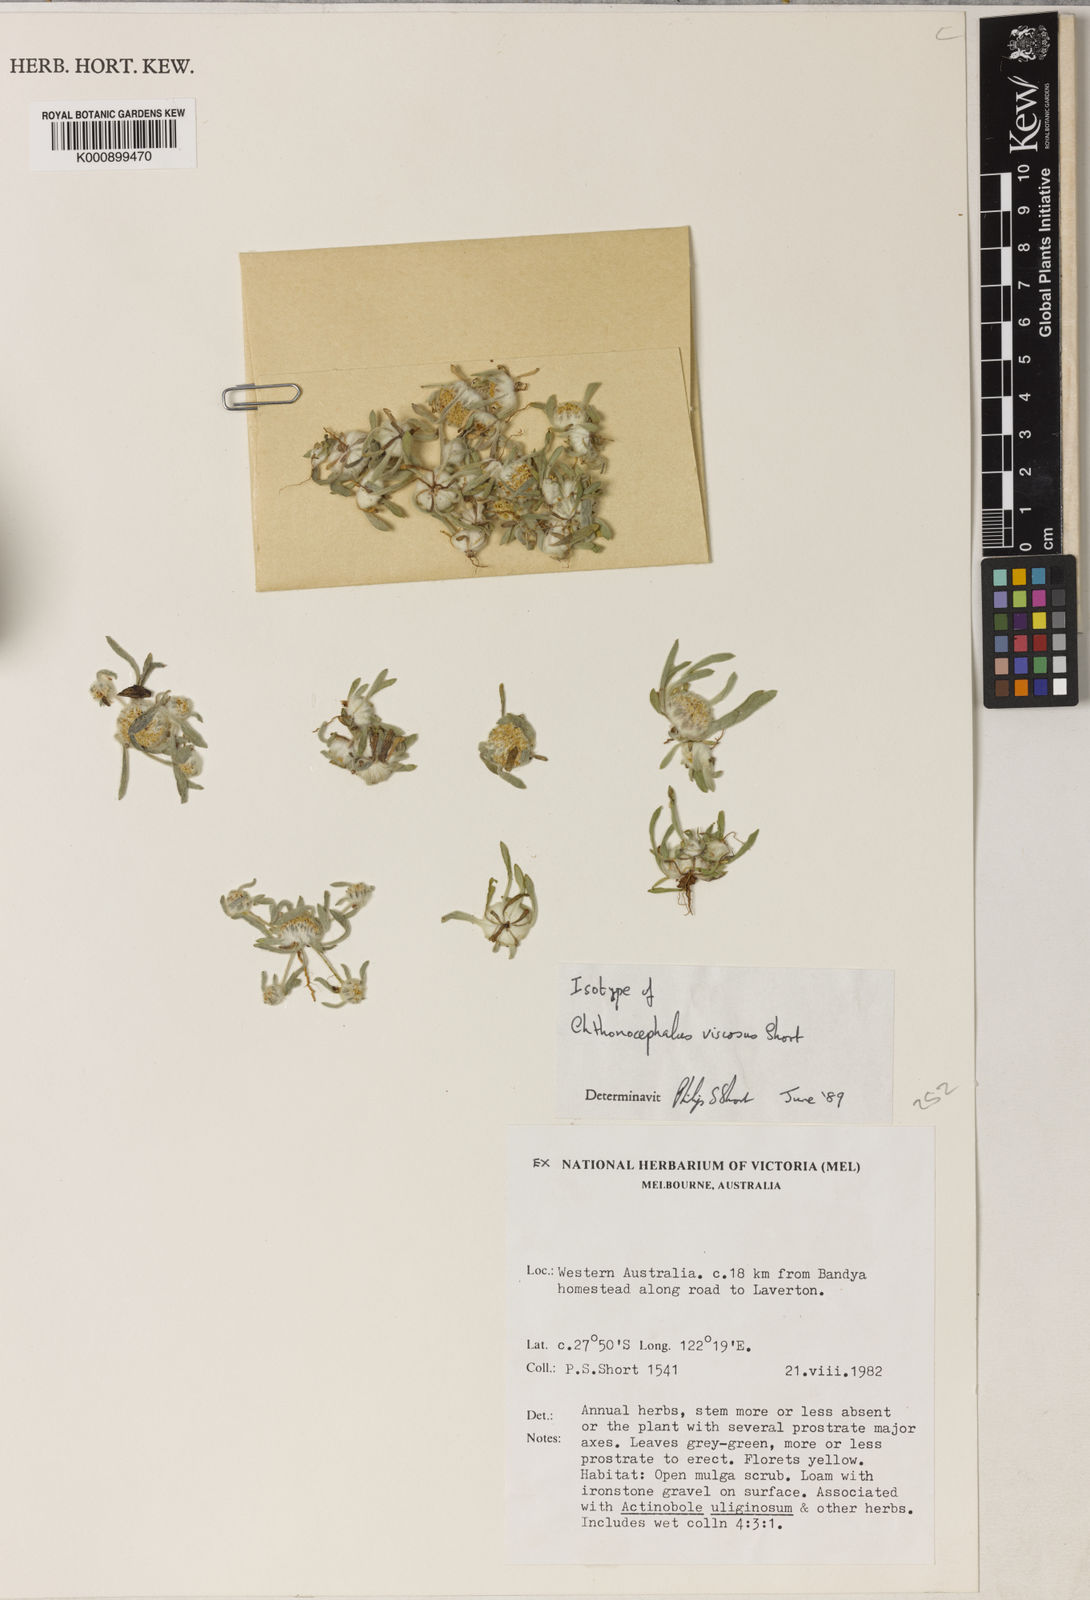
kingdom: Plantae
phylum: Tracheophyta
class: Magnoliopsida
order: Asterales
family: Asteraceae
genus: Chthonocephalus
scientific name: Chthonocephalus viscosus
